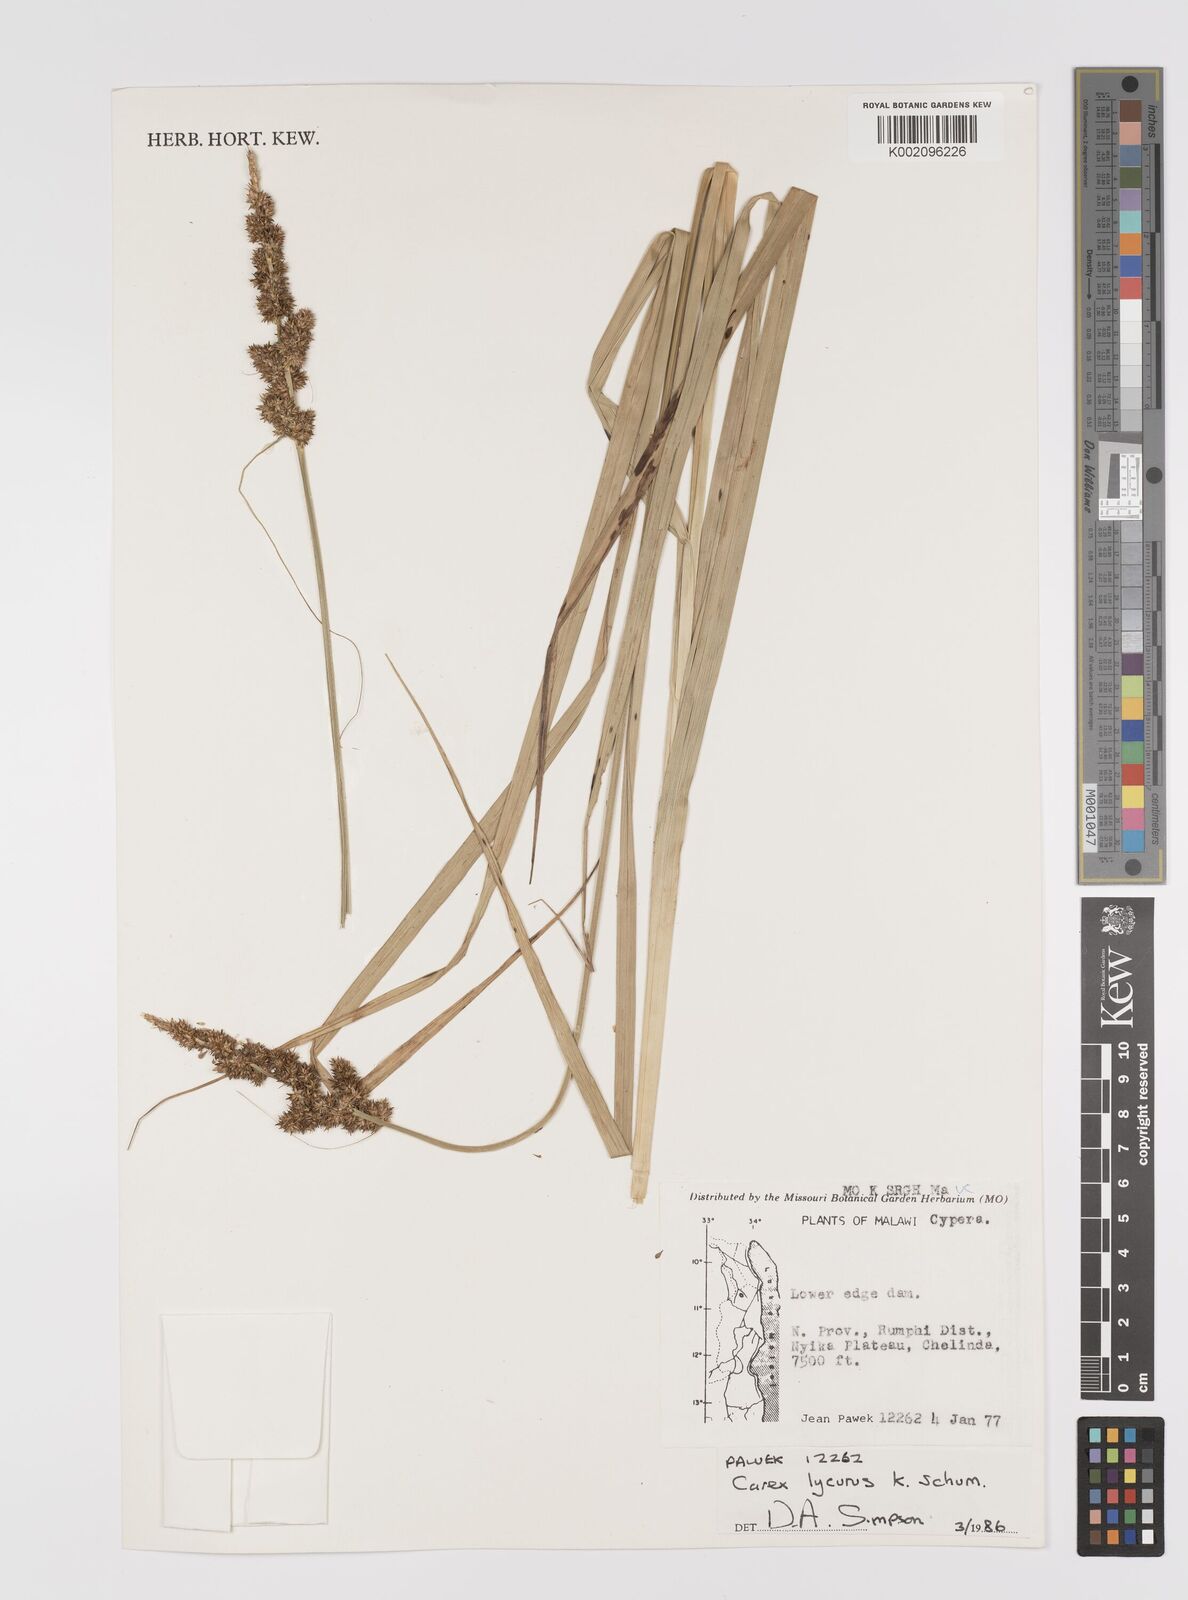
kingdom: Plantae
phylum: Tracheophyta
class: Liliopsida
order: Poales
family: Cyperaceae
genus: Carex
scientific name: Carex lycurus
